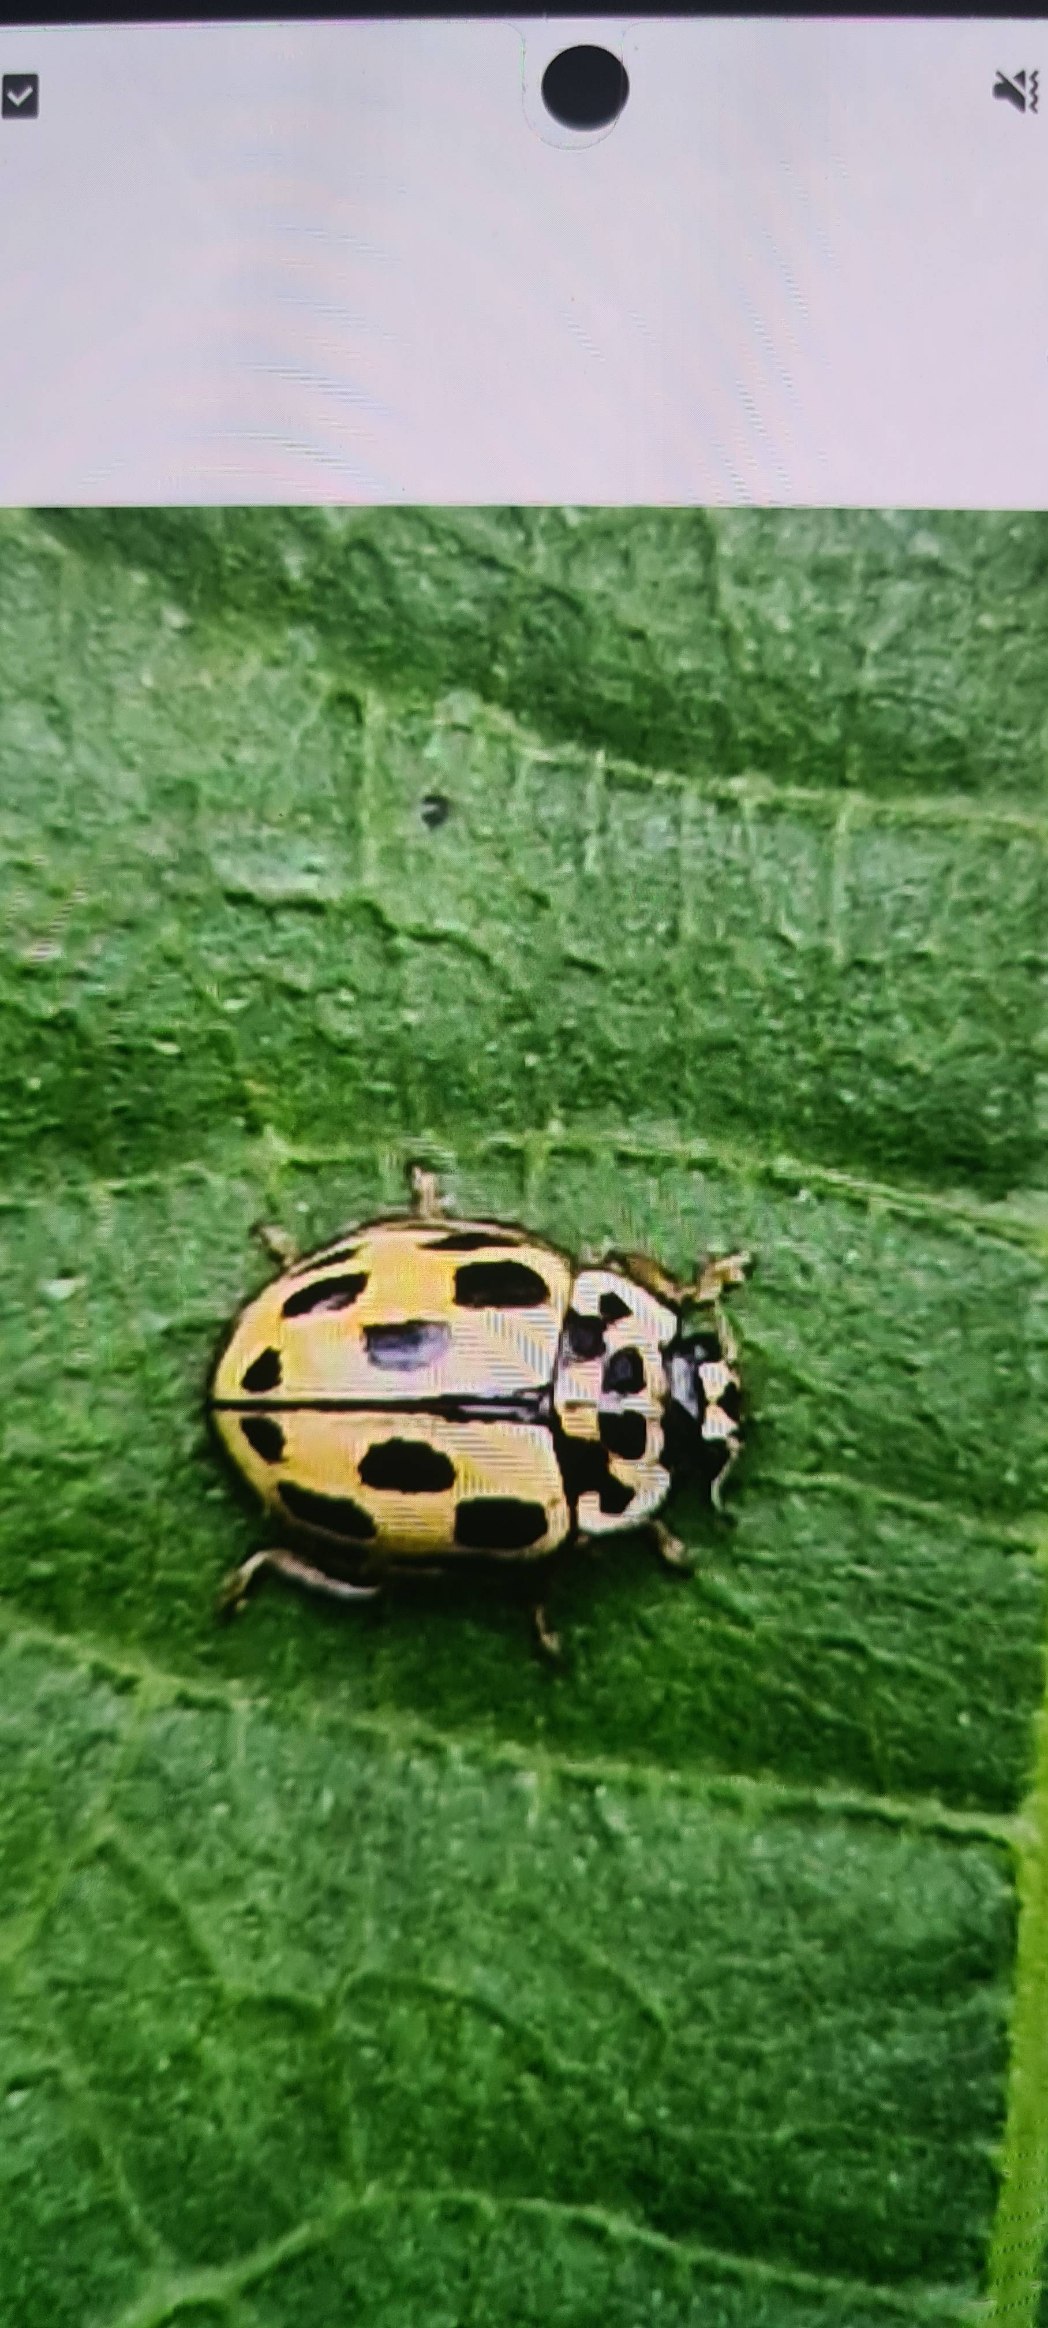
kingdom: Animalia
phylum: Arthropoda
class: Insecta
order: Coleoptera
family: Coccinellidae
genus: Propylaea
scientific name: Propylaea quatuordecimpunctata
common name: Skakbræt
